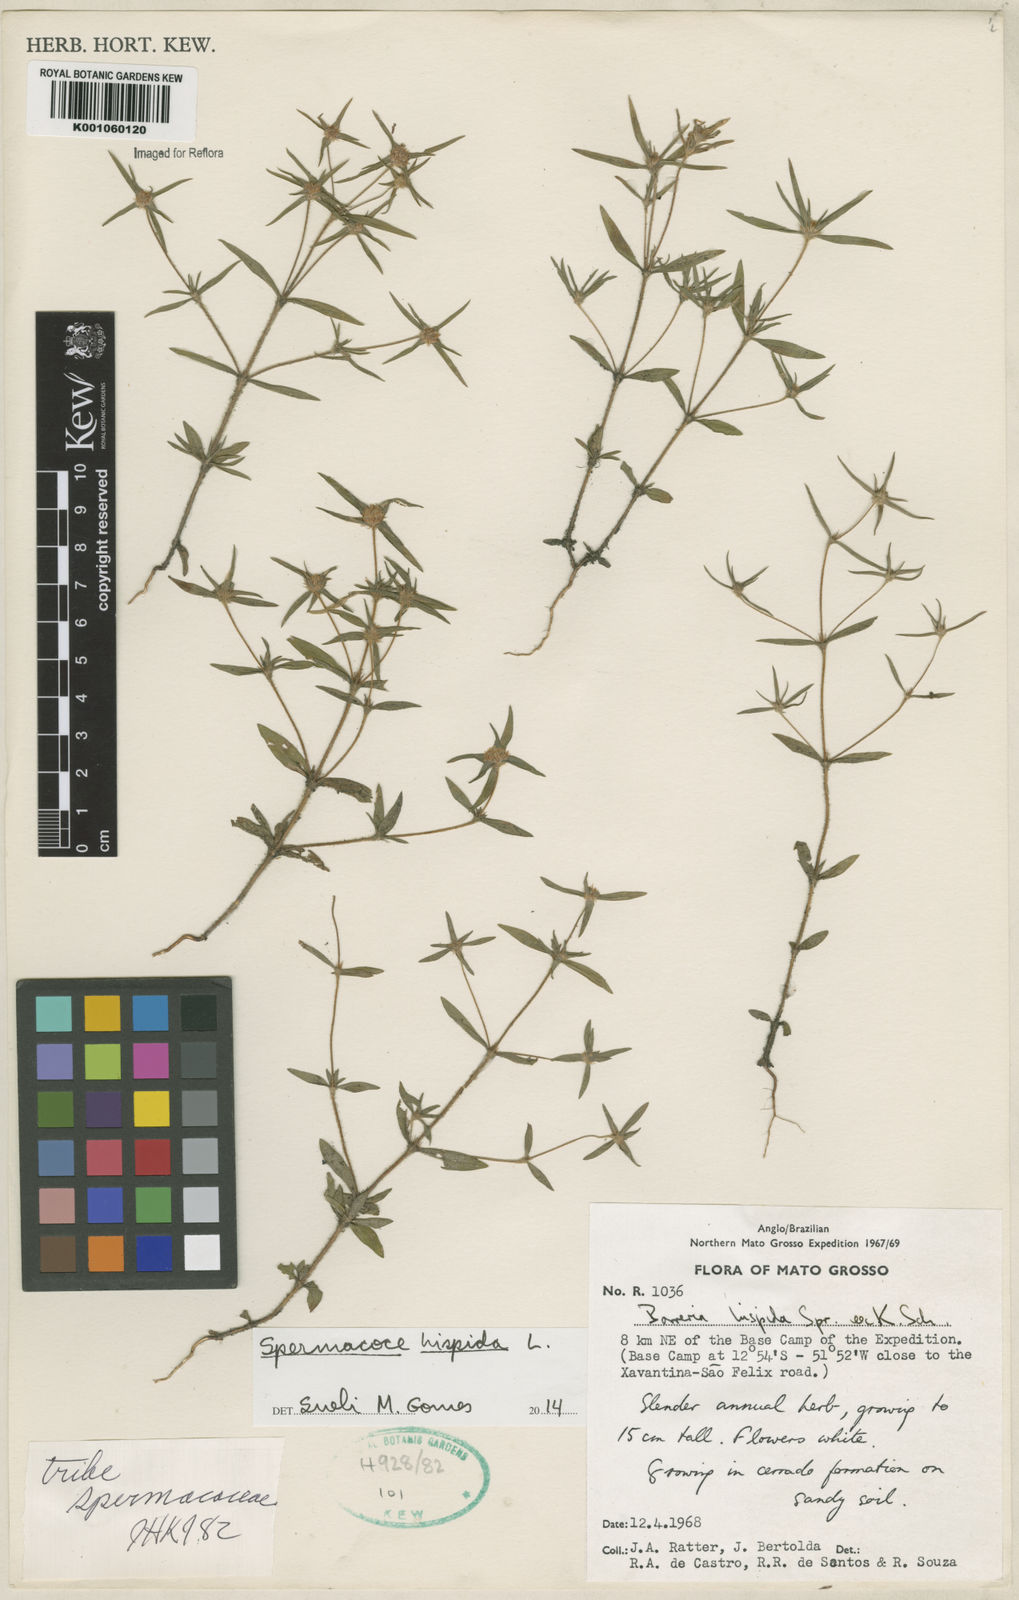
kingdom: Plantae
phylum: Tracheophyta
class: Magnoliopsida
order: Gentianales
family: Rubiaceae
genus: Spermacoce
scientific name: Spermacoce hispida
